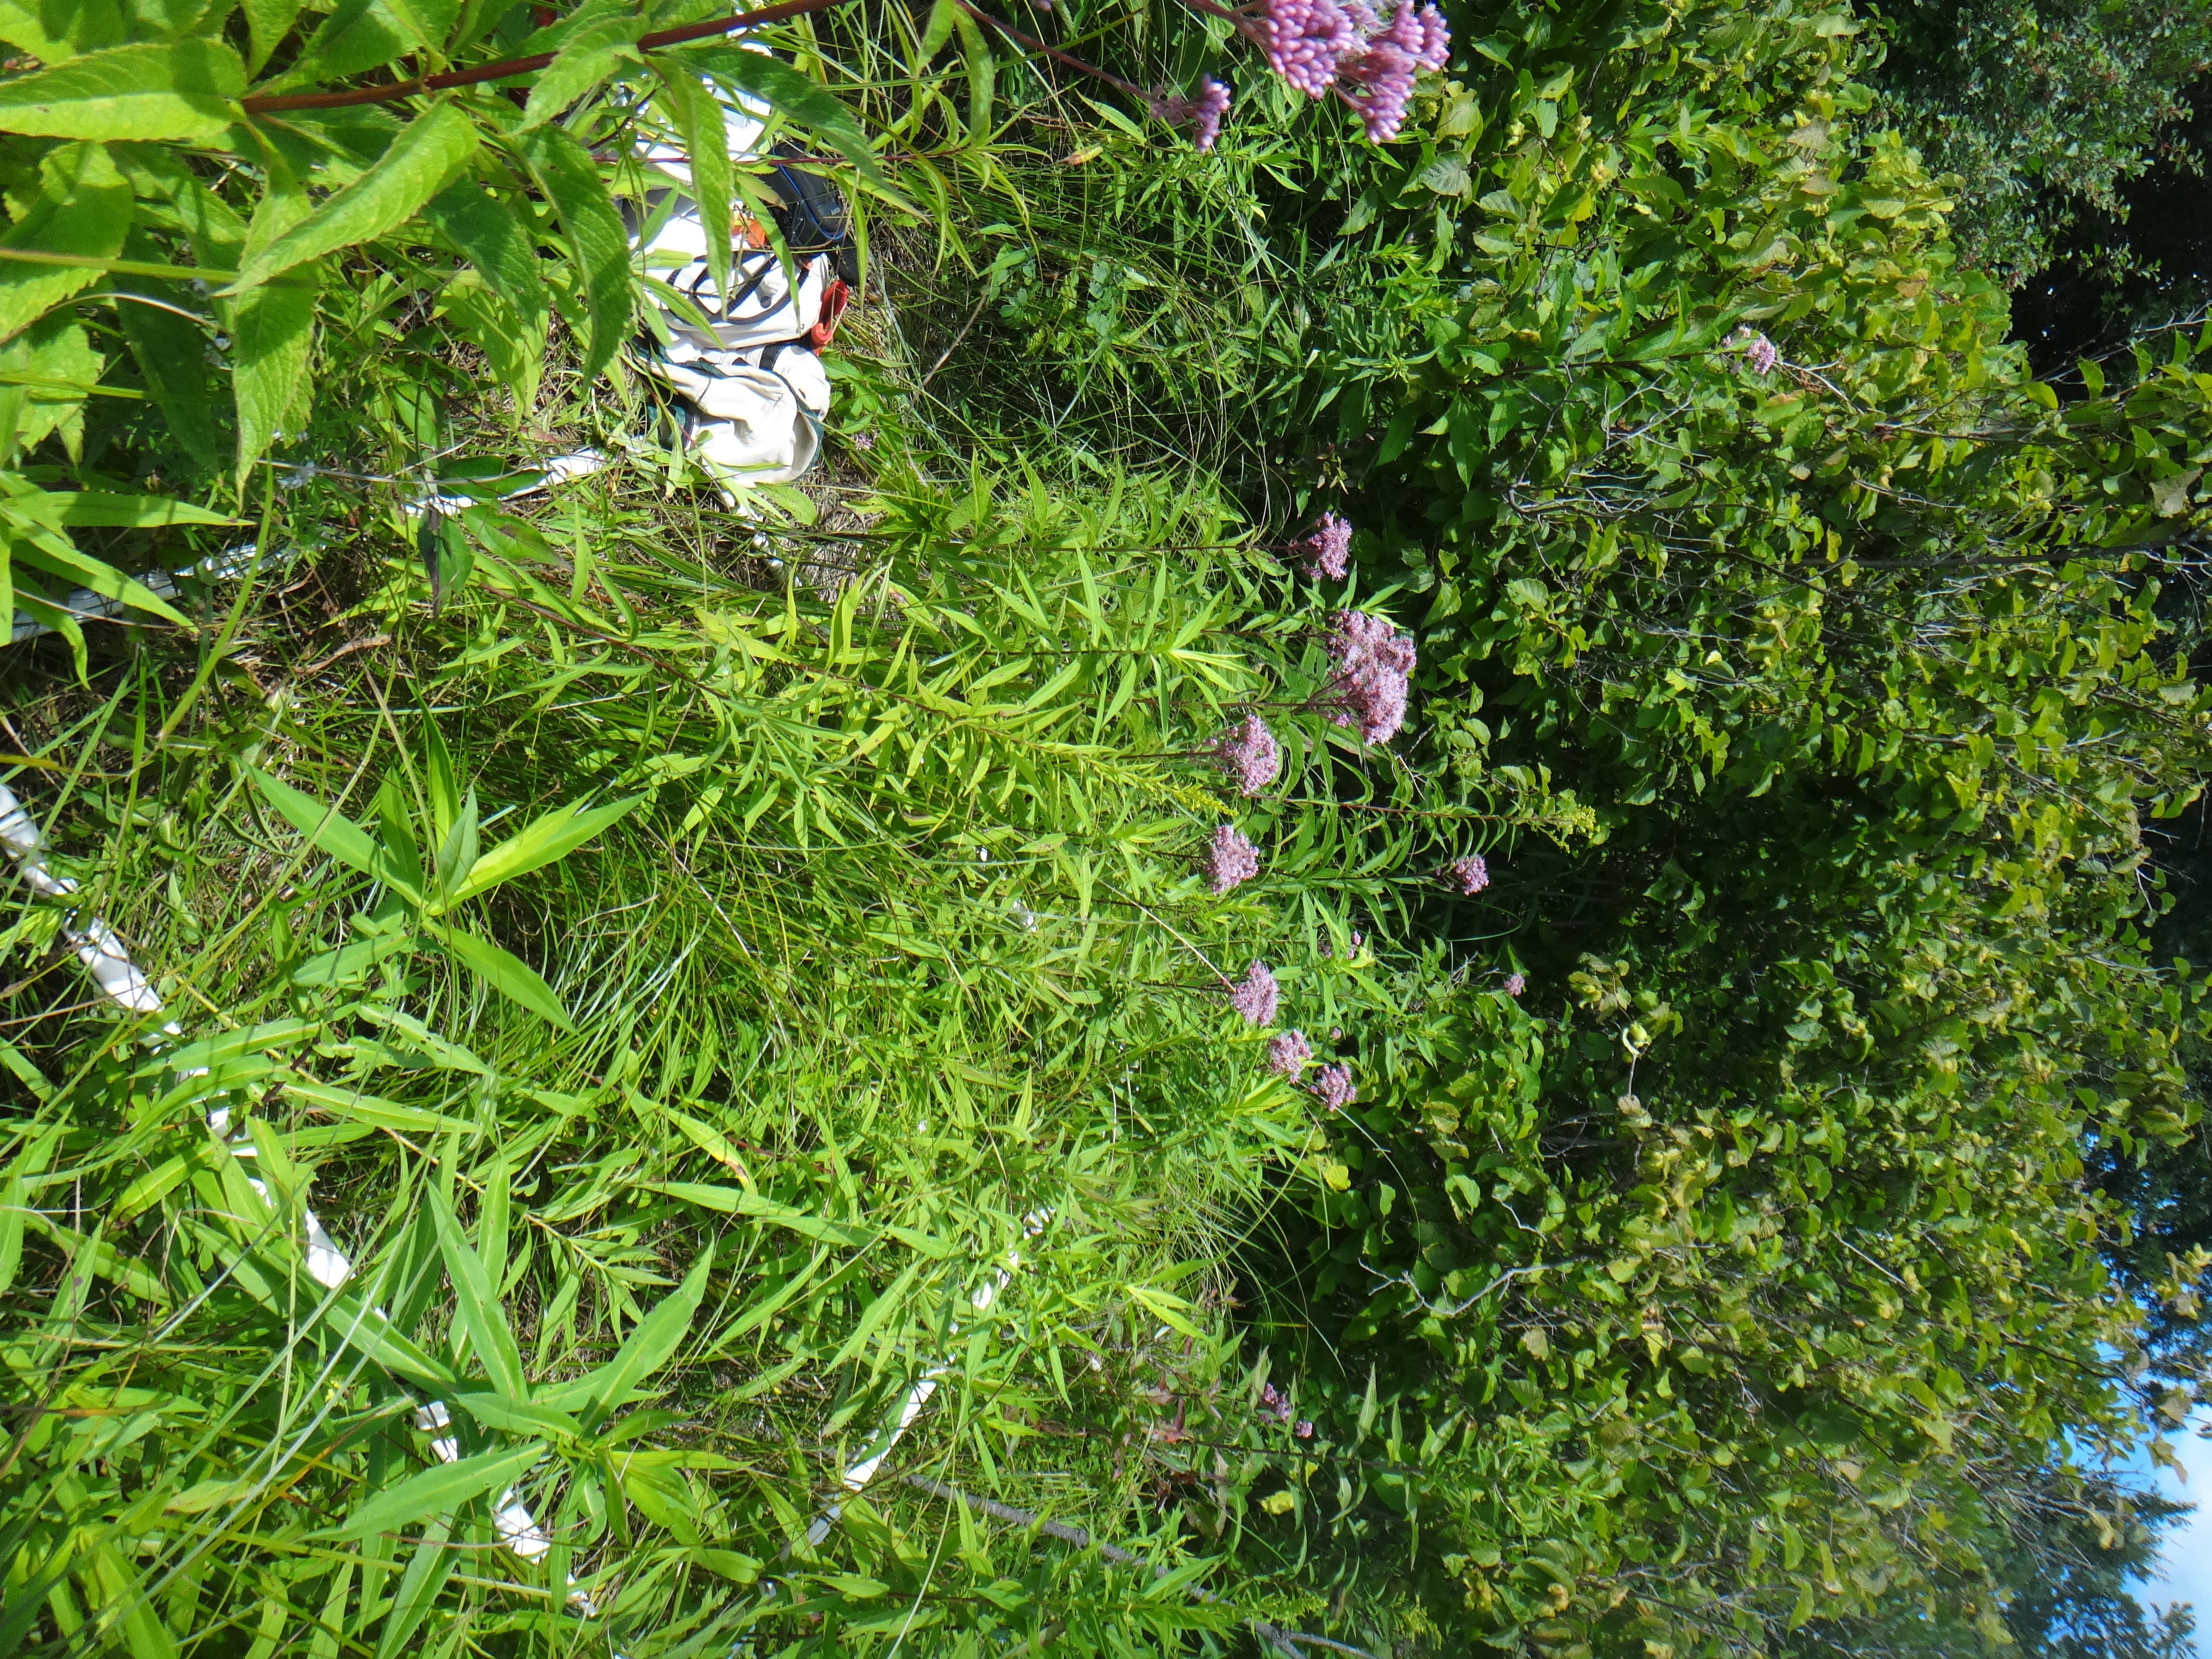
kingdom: Plantae
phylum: Tracheophyta
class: Liliopsida
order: Poales
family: Poaceae
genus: Andropogon
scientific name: Andropogon gerardi
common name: Big bluestem
